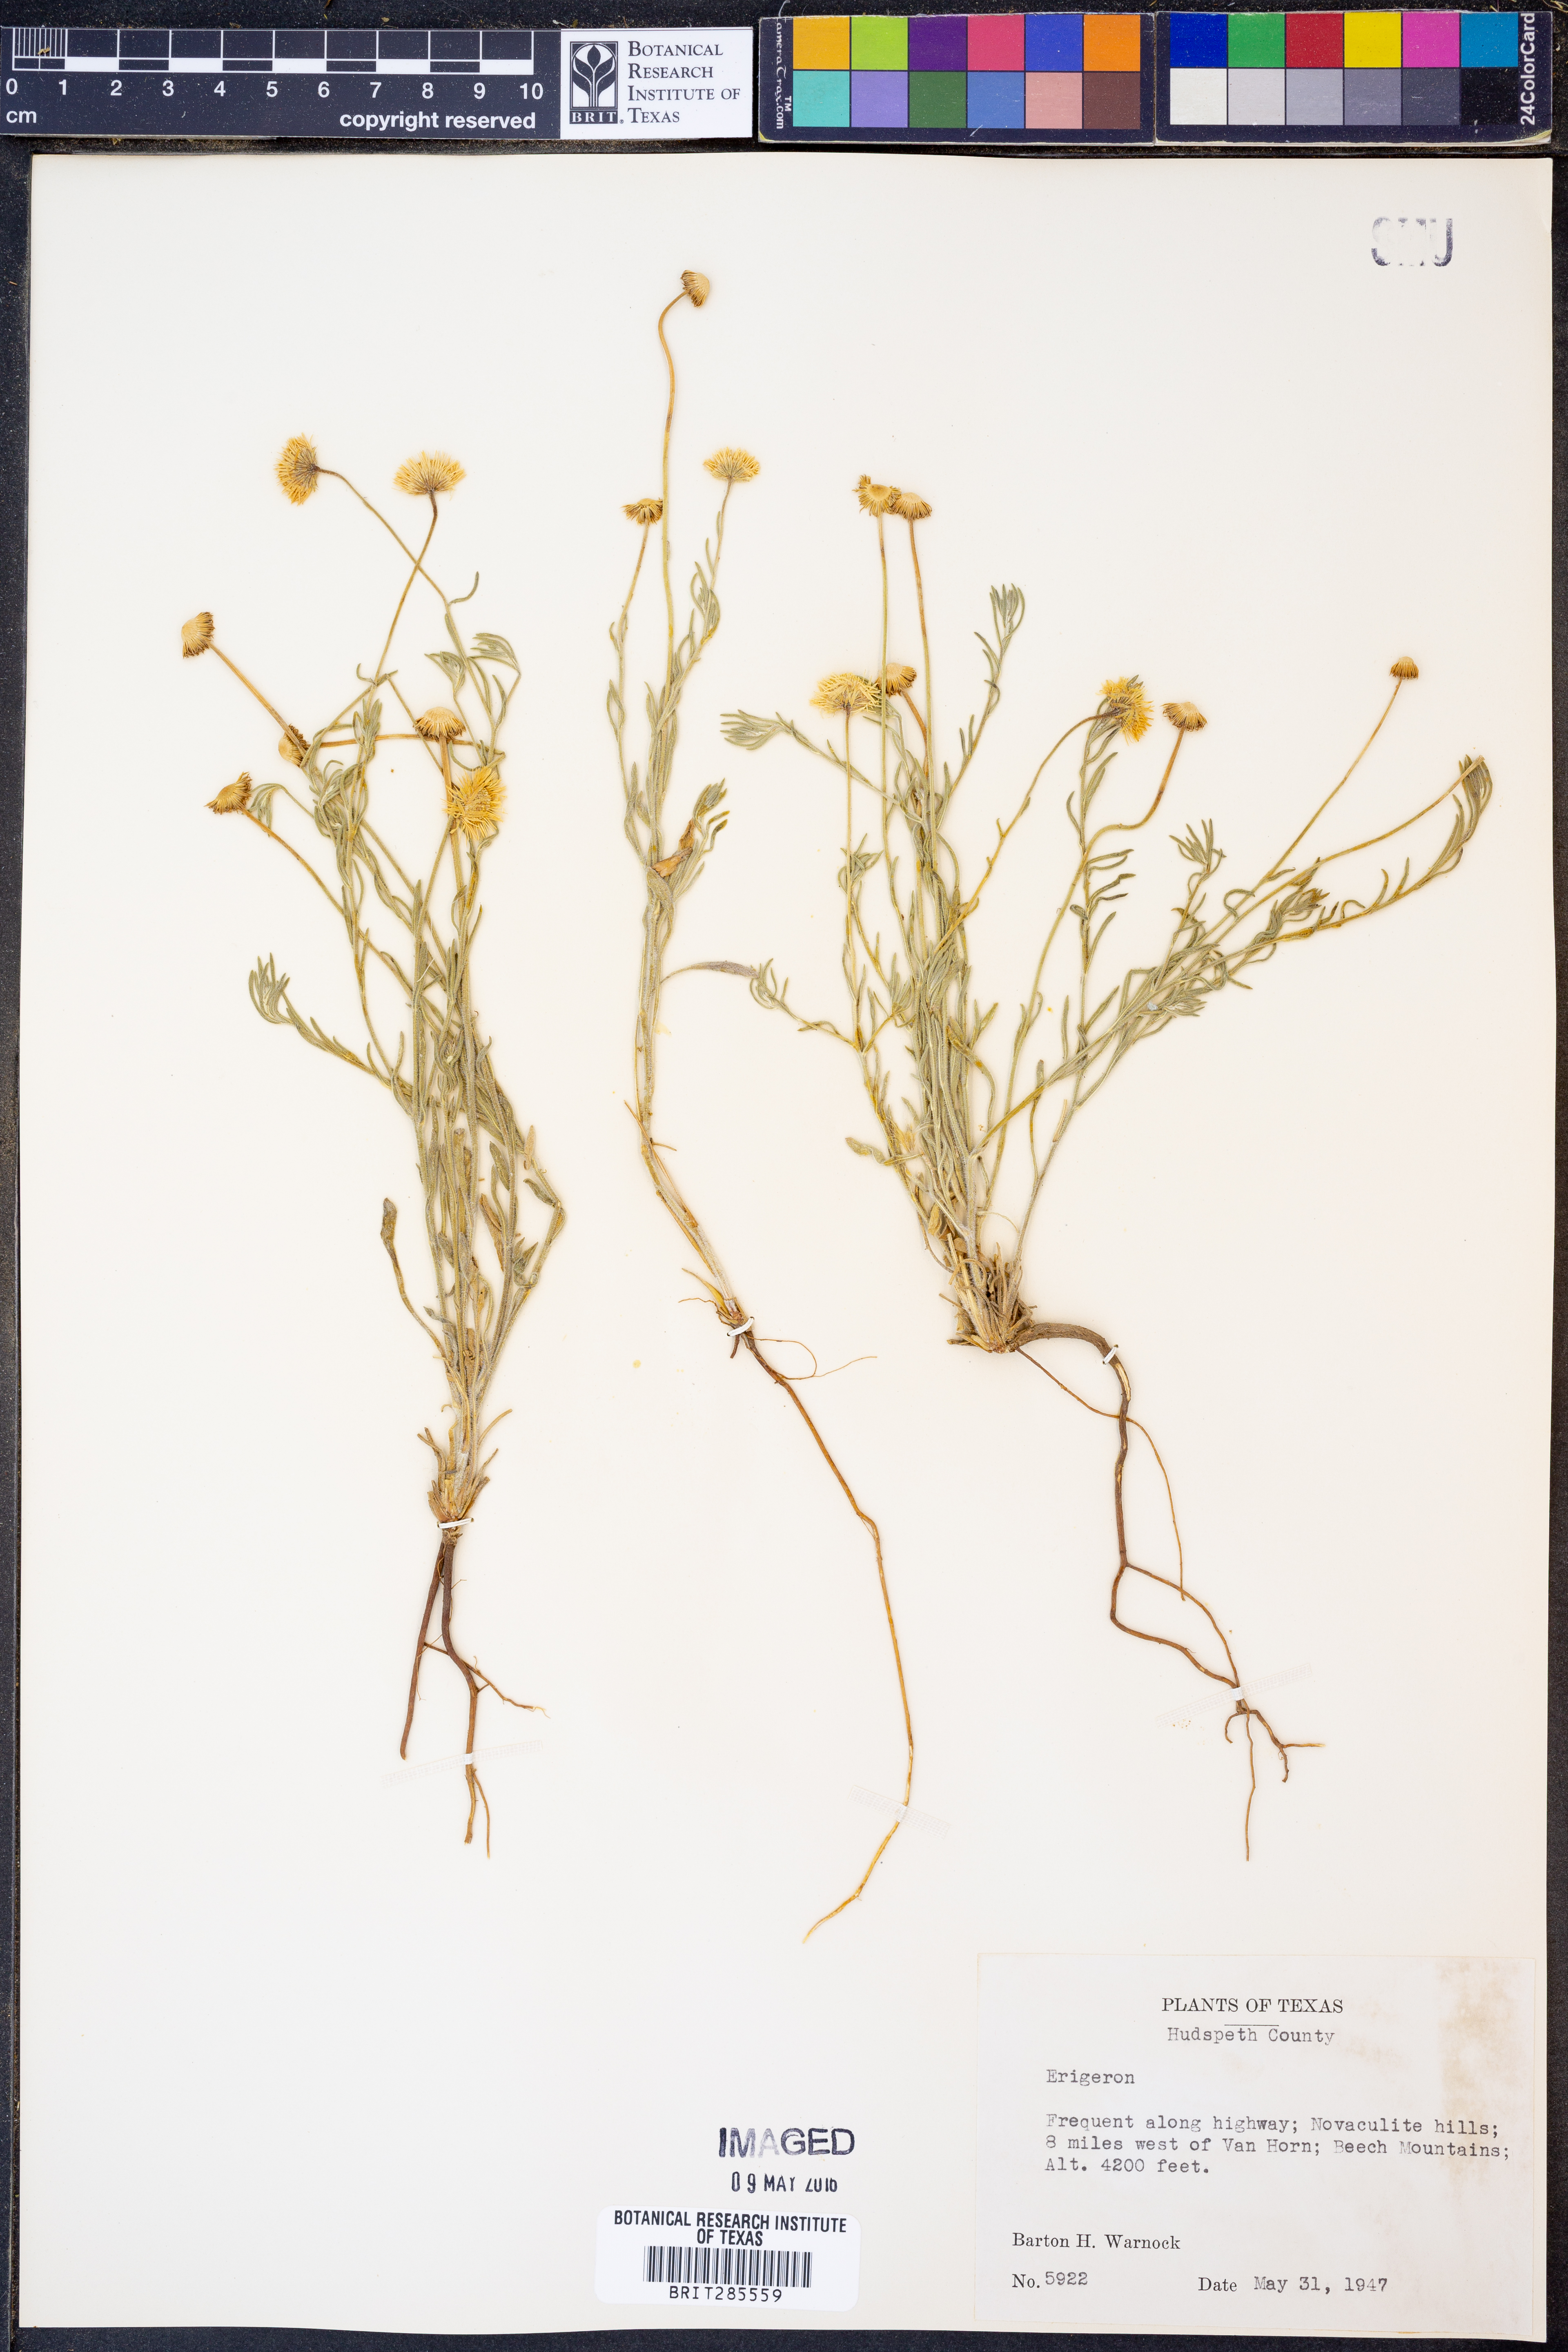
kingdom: Plantae
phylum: Tracheophyta
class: Magnoliopsida
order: Asterales
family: Asteraceae
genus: Erigeron
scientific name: Erigeron
